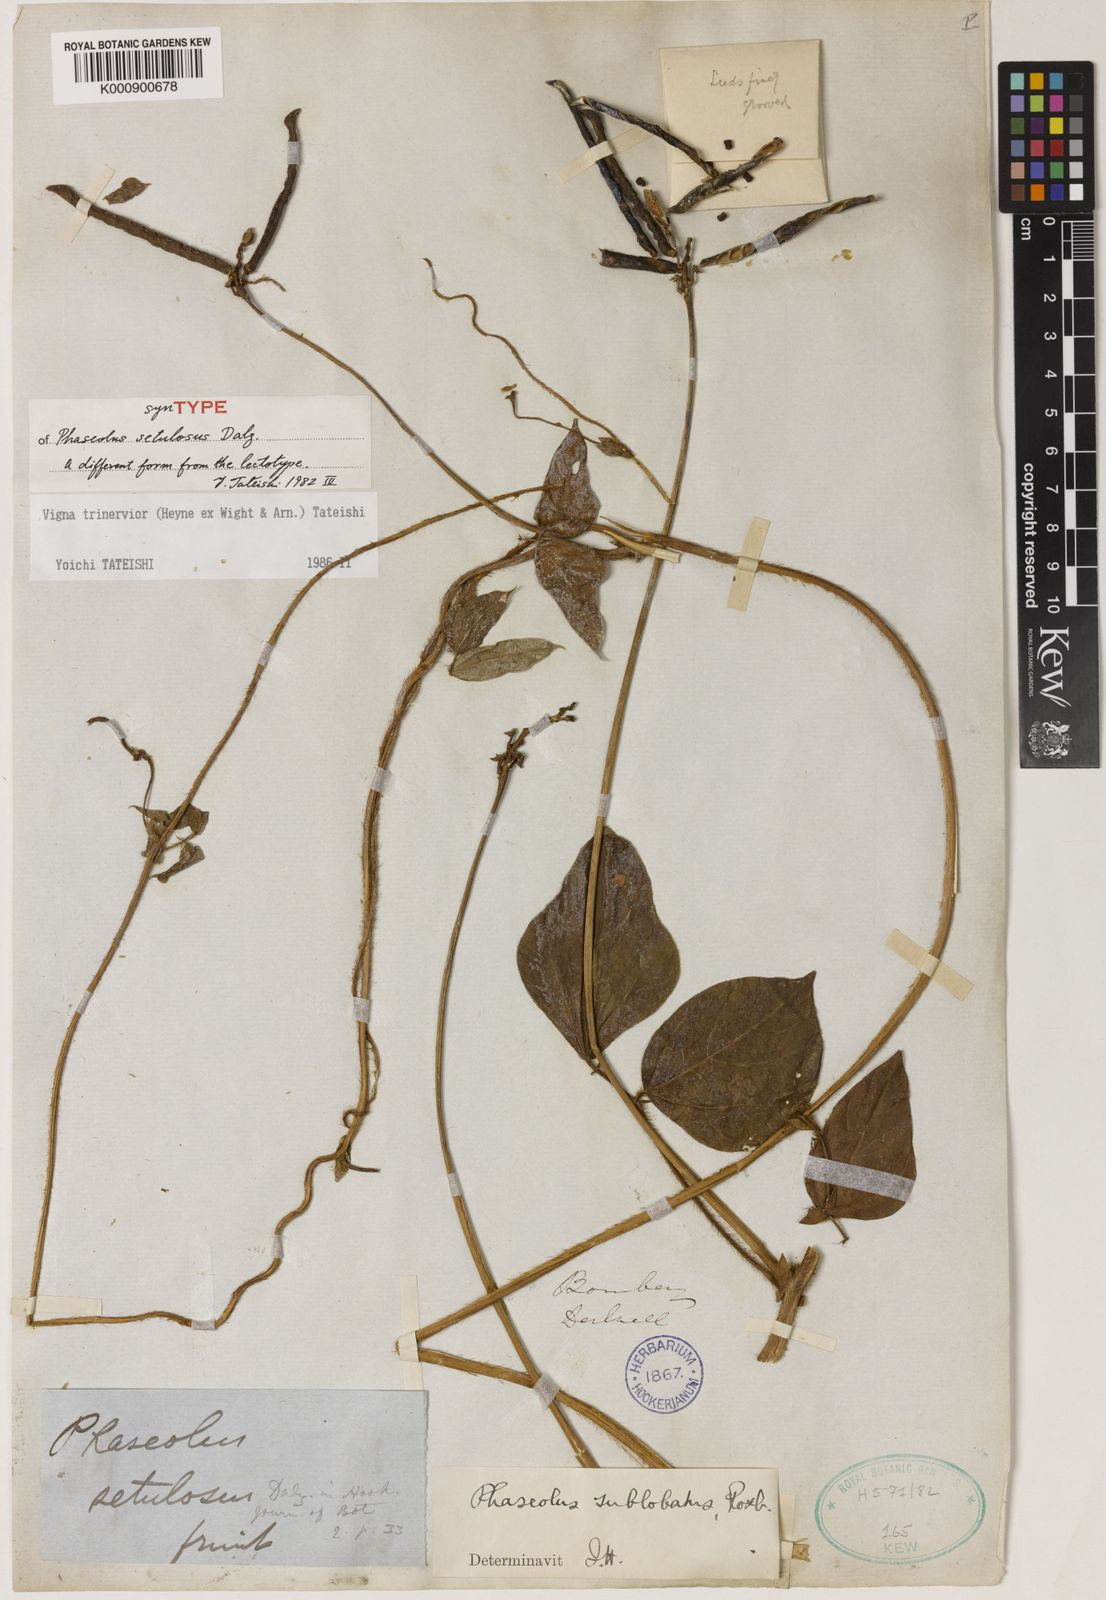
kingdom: Plantae
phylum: Tracheophyta
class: Magnoliopsida
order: Fabales
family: Fabaceae
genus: Vigna
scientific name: Vigna
